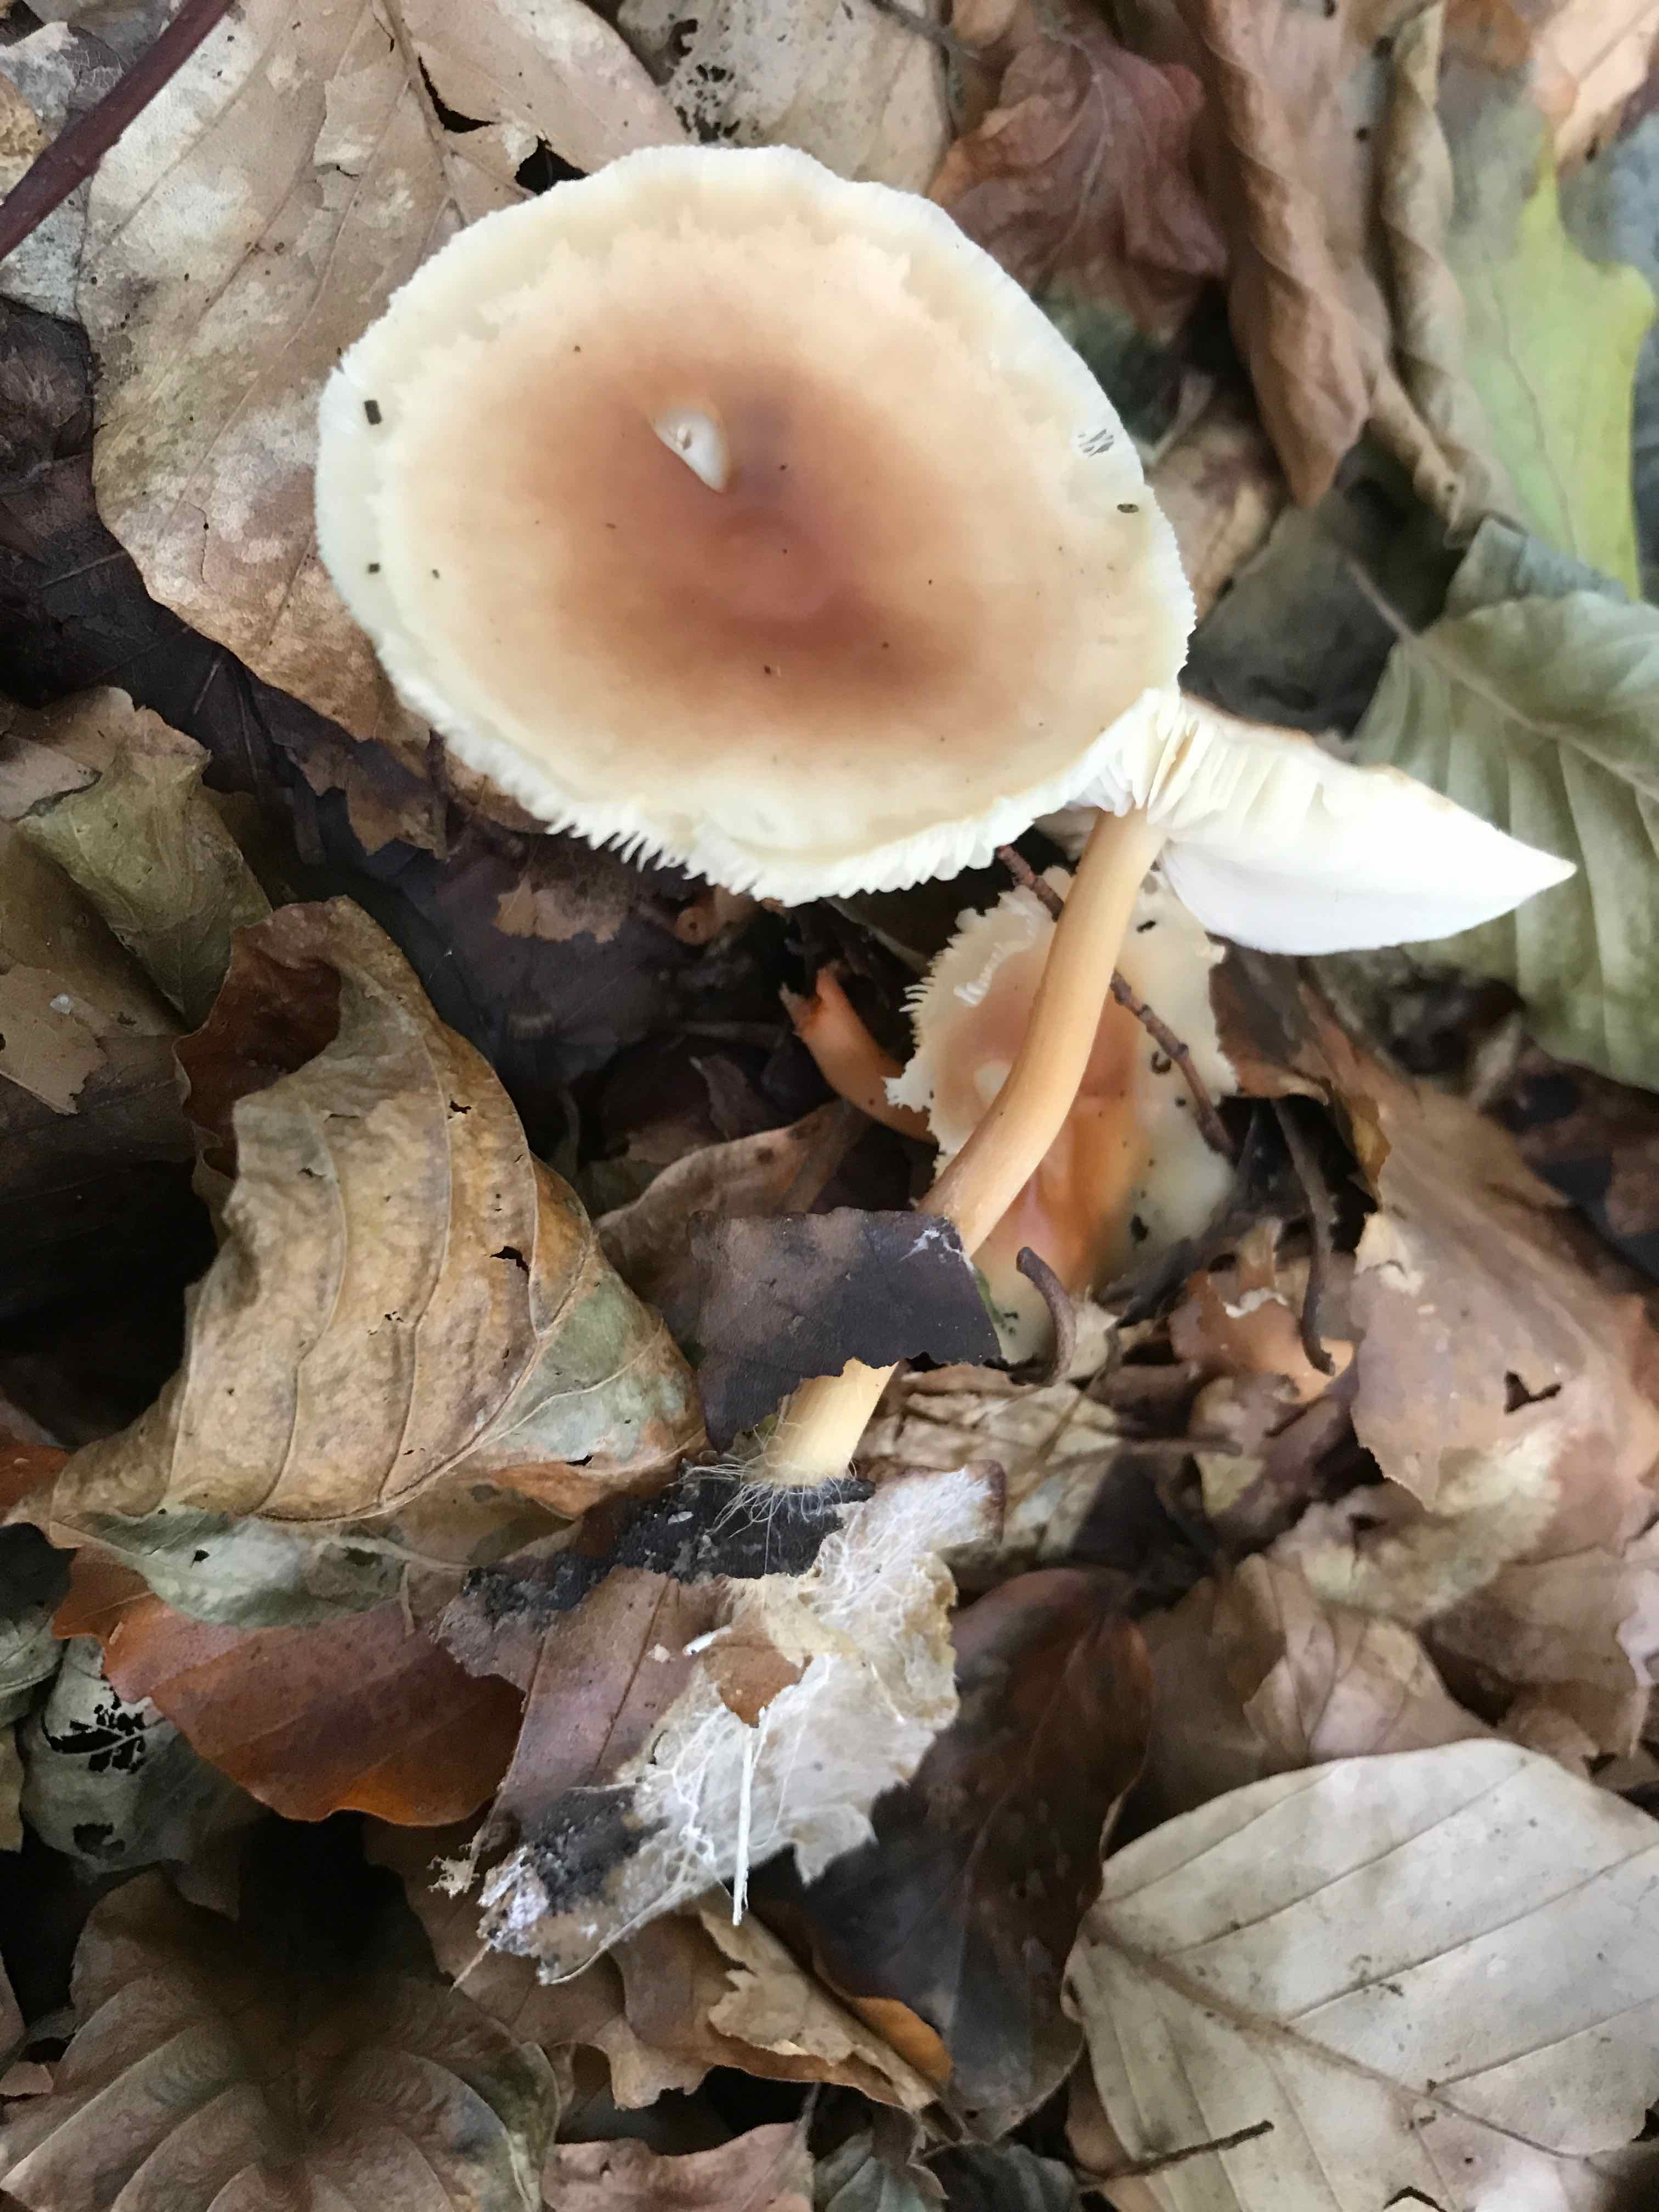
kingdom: Fungi
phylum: Basidiomycota
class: Agaricomycetes
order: Agaricales
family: Omphalotaceae
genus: Gymnopus
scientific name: Gymnopus dryophilus
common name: løv-fladhat
